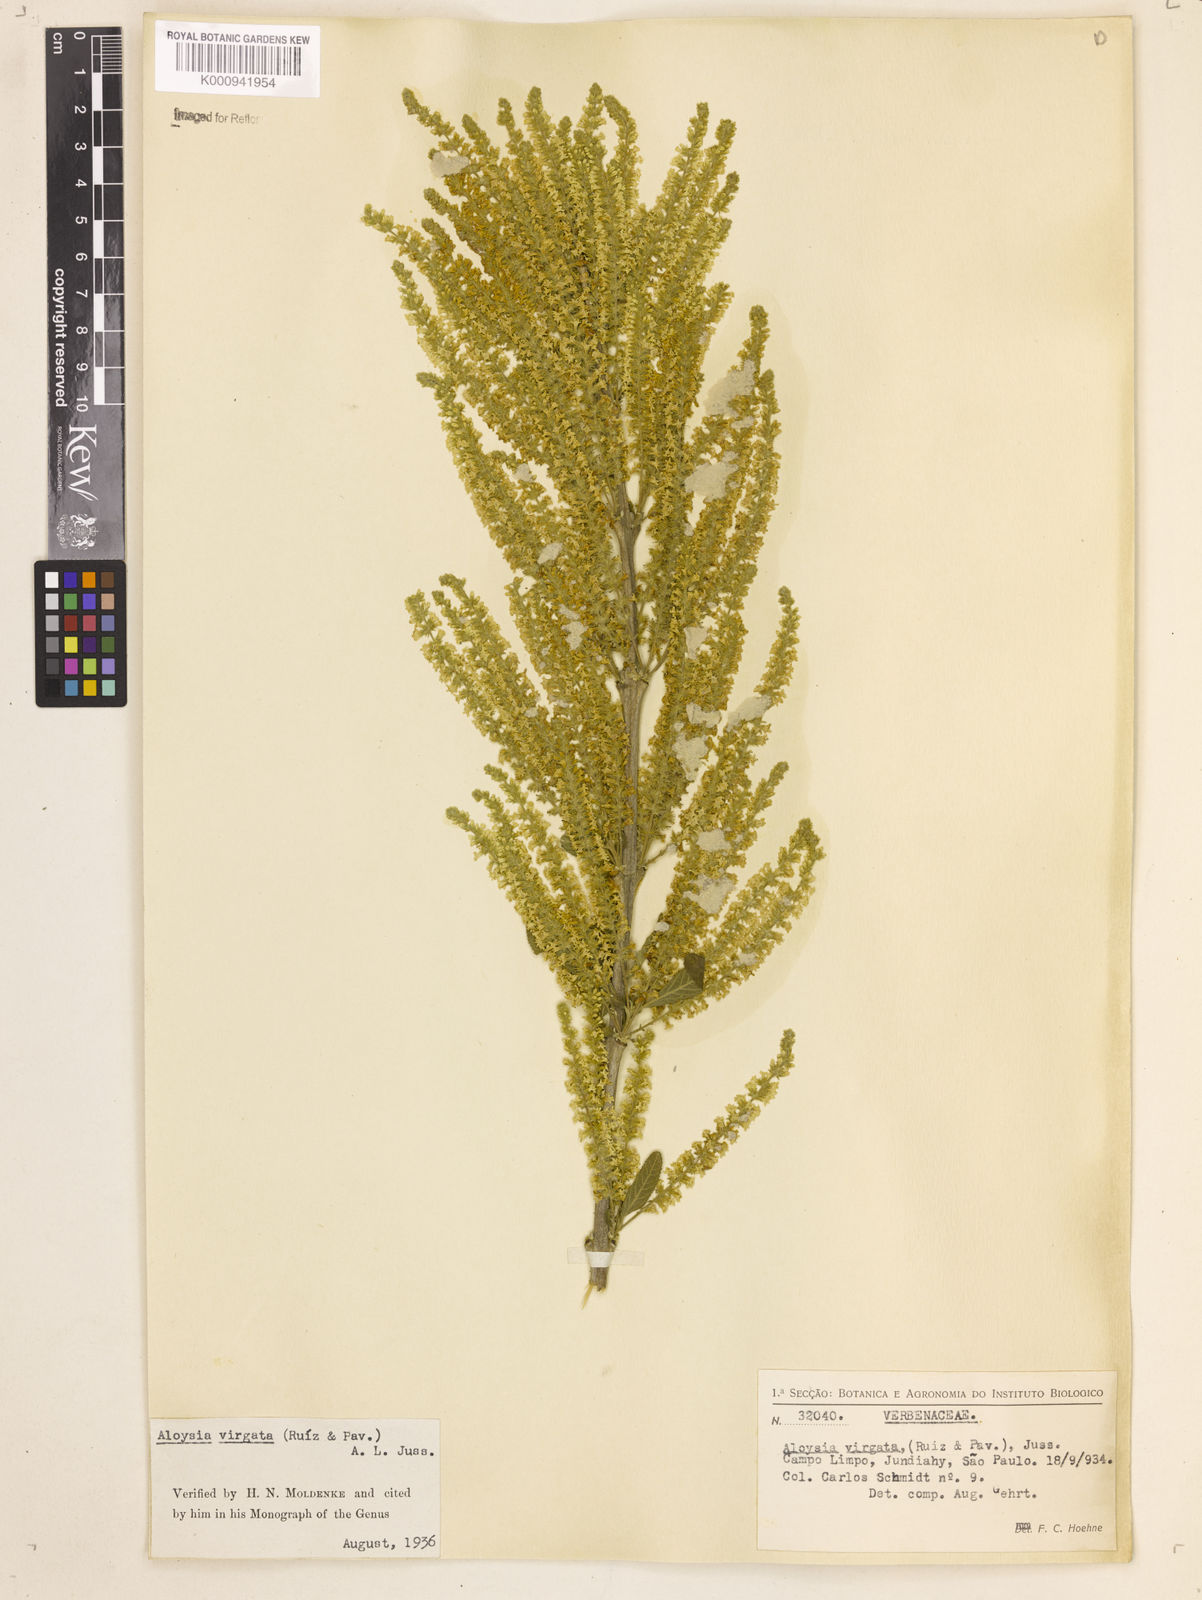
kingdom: Plantae
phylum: Tracheophyta
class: Magnoliopsida
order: Lamiales
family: Verbenaceae
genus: Aloysia
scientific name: Aloysia
